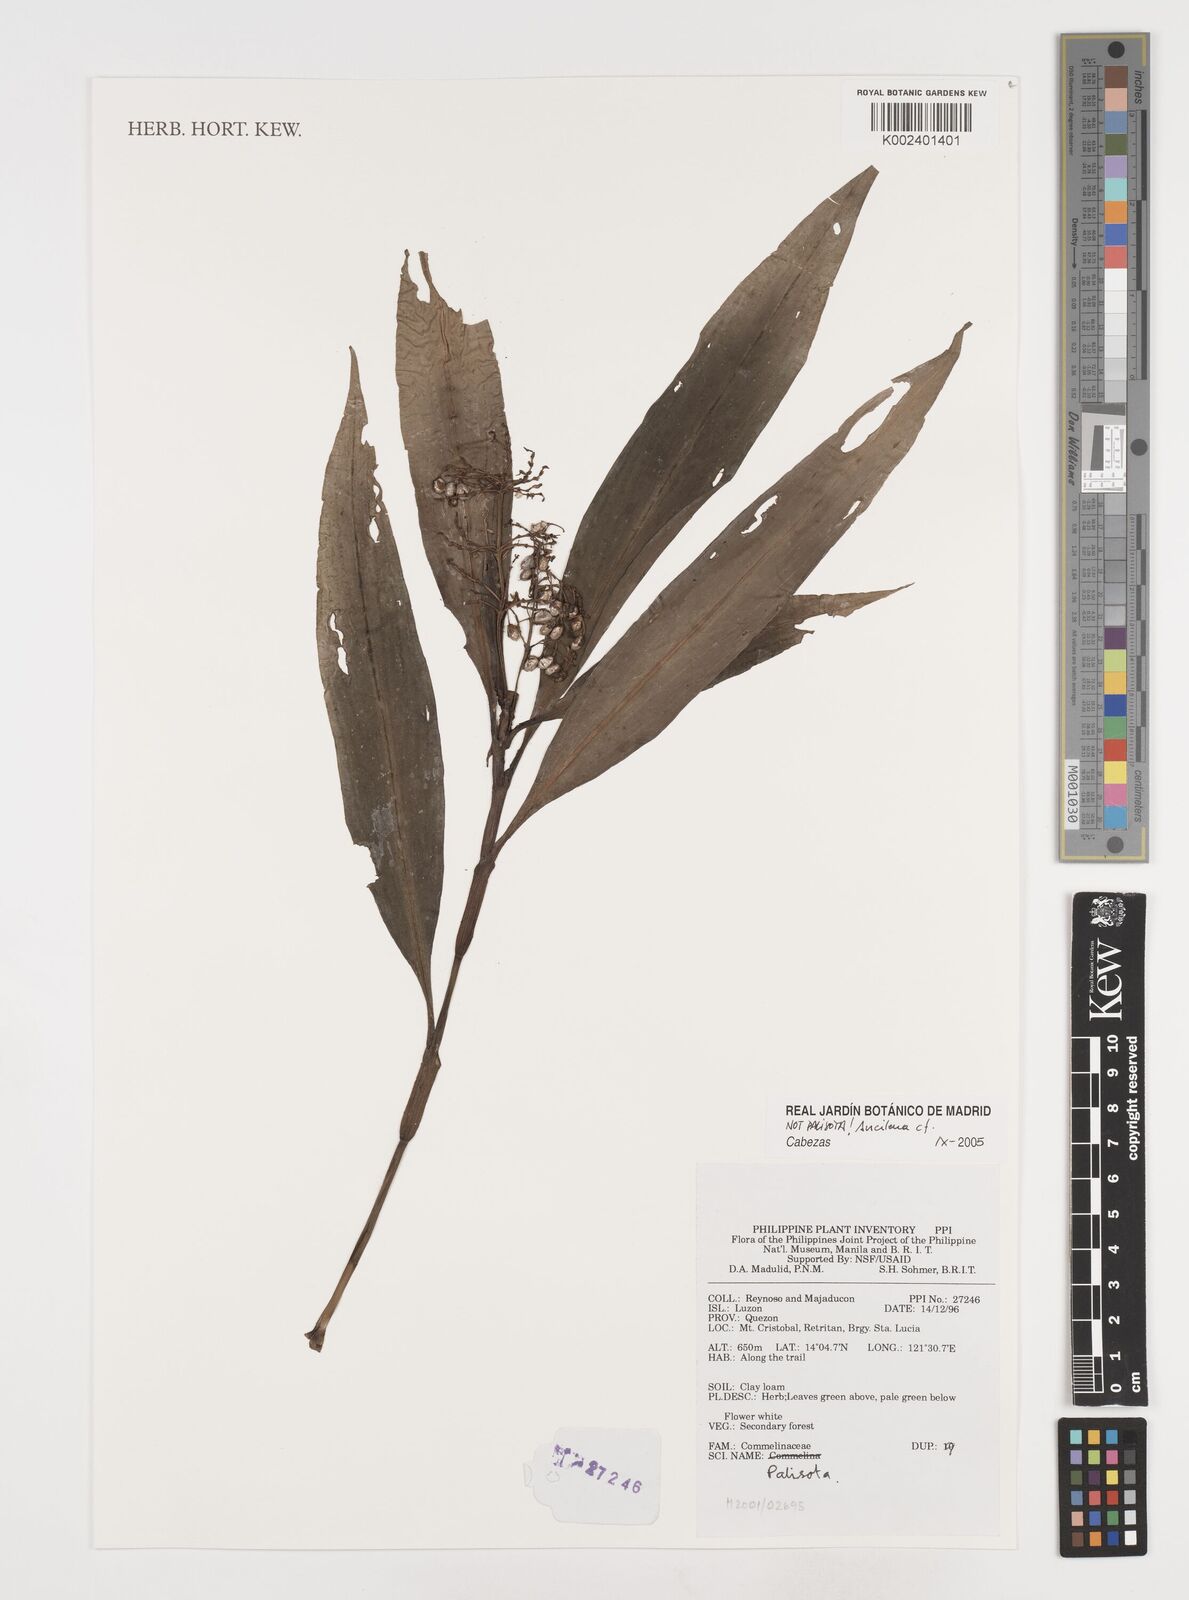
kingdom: Plantae
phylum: Tracheophyta
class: Liliopsida
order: Commelinales
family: Commelinaceae
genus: Pollia
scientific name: Pollia macrophylla
